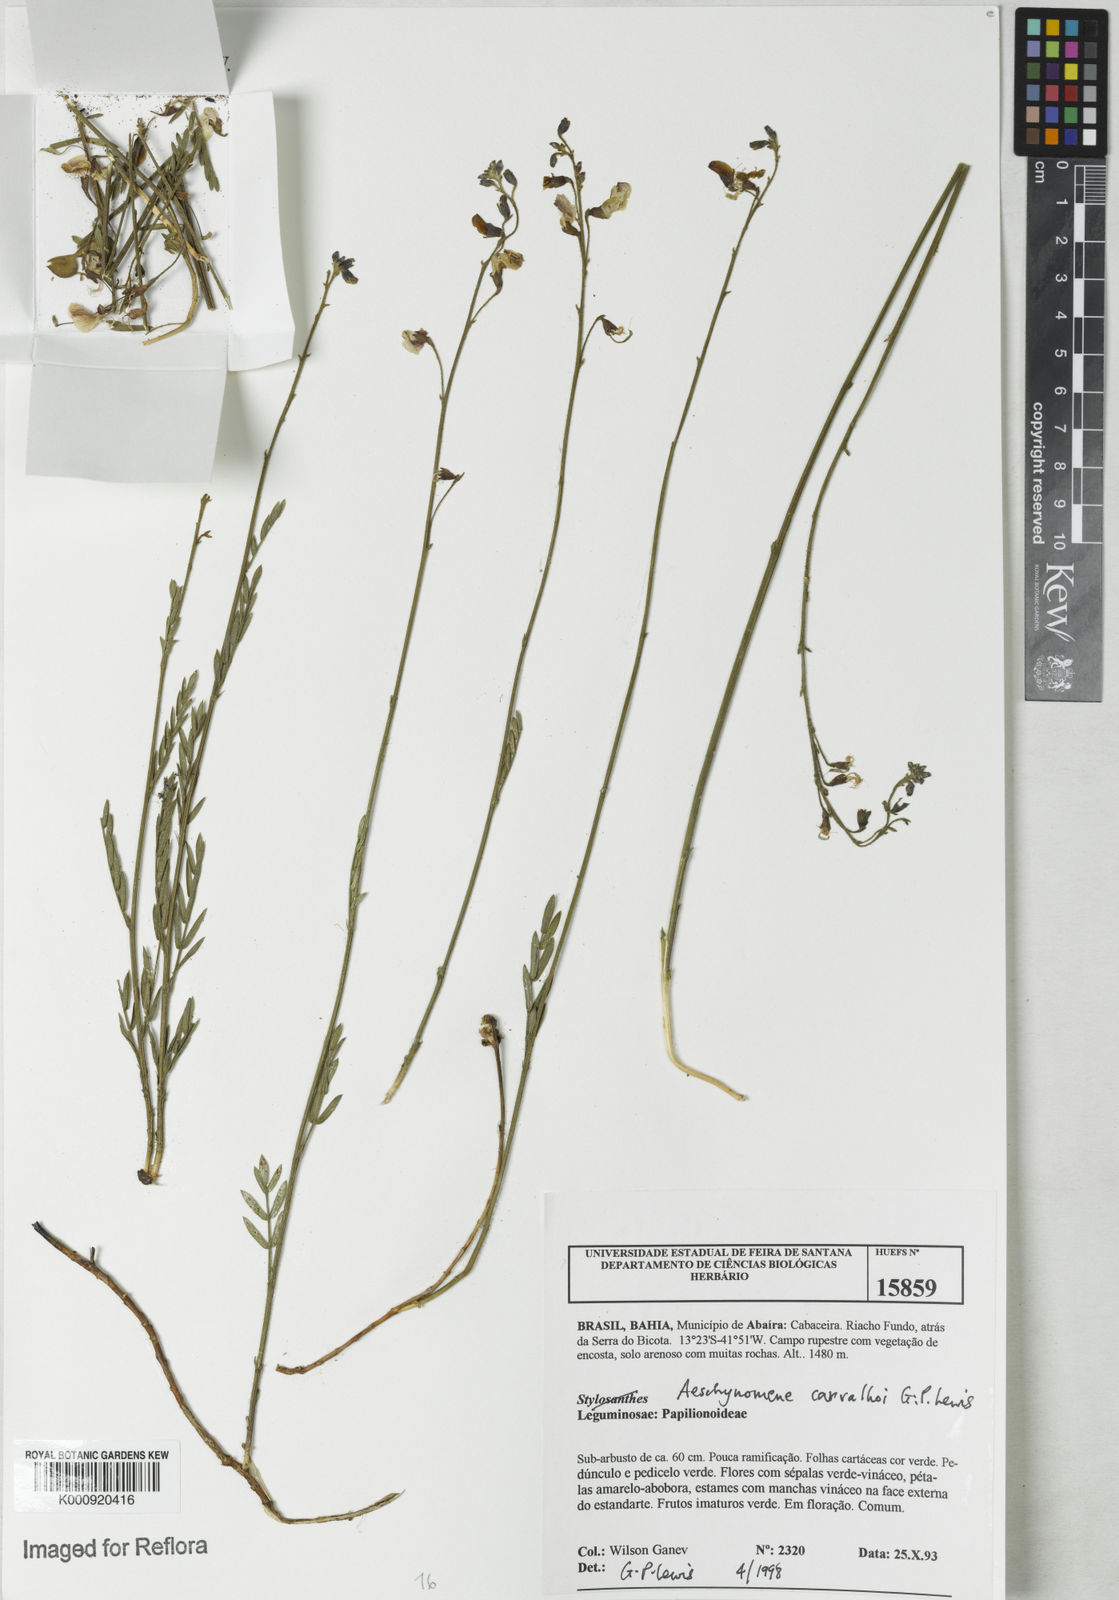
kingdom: Plantae
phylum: Tracheophyta
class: Magnoliopsida
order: Fabales
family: Fabaceae
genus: Ctenodon
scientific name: Ctenodon carvalhoi
